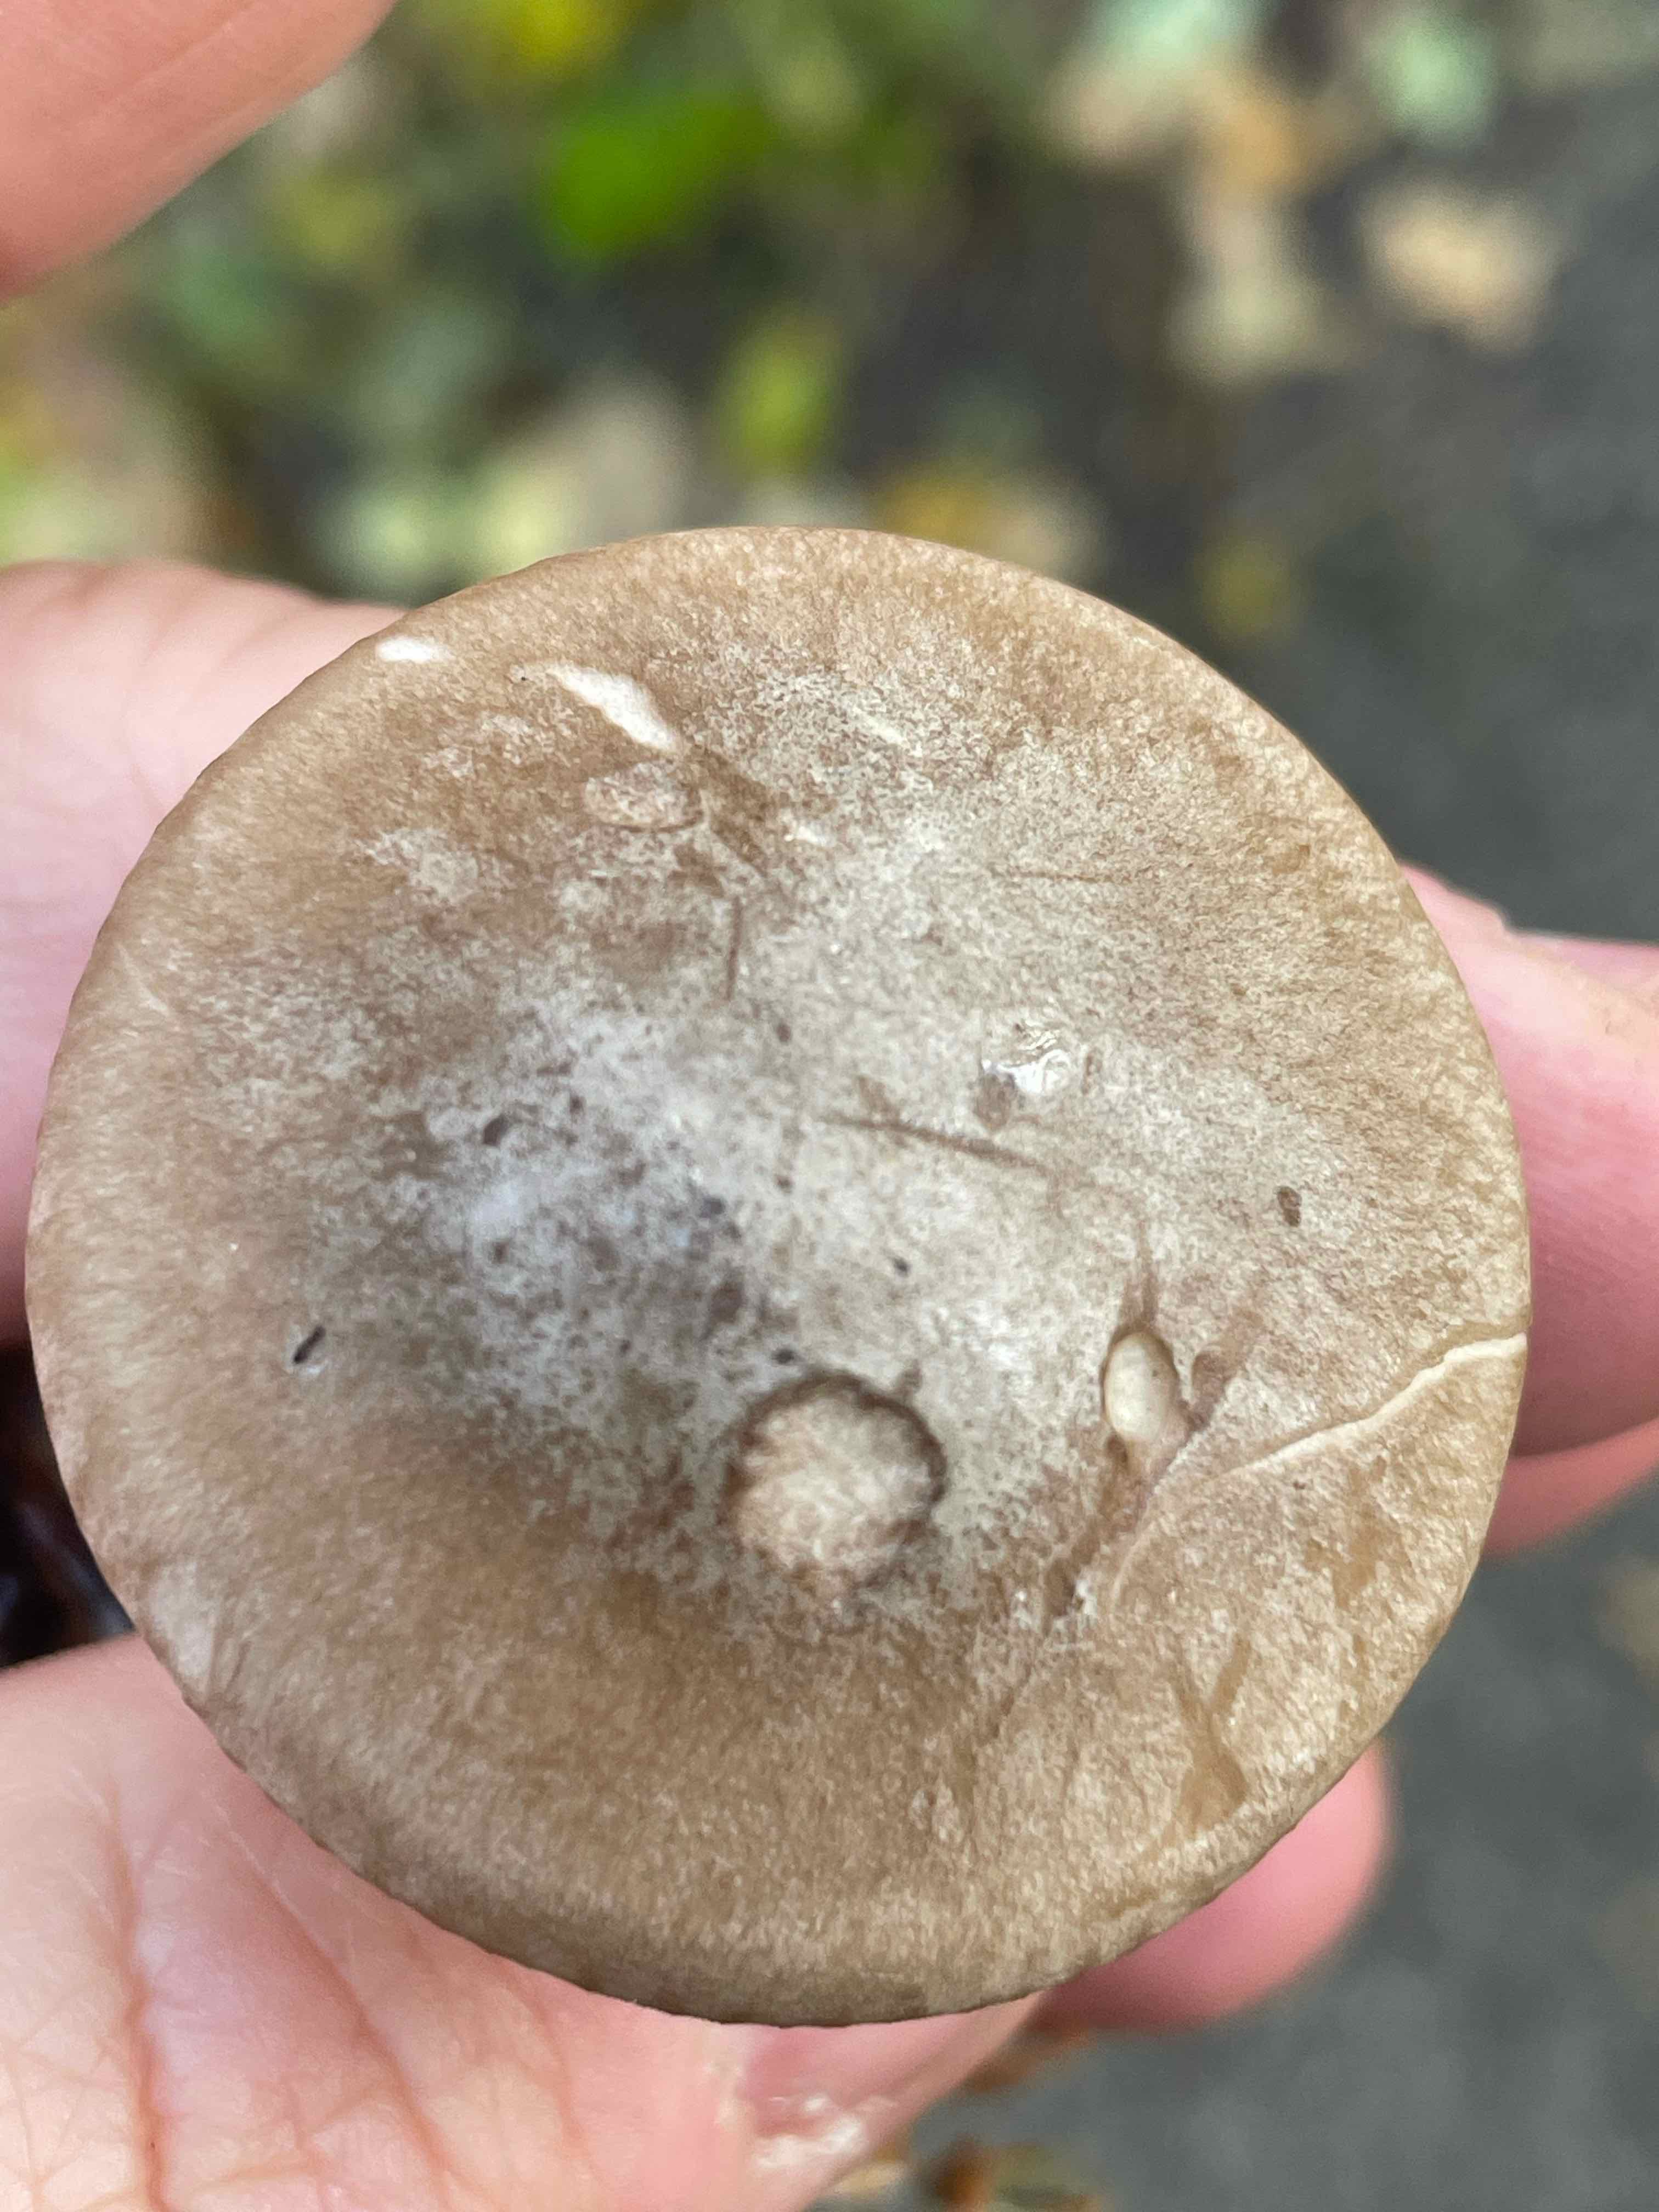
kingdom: Fungi
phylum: Basidiomycota
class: Agaricomycetes
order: Agaricales
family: Tricholomataceae
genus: Clitocybe
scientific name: Clitocybe nebularis
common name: tåge-tragthat
